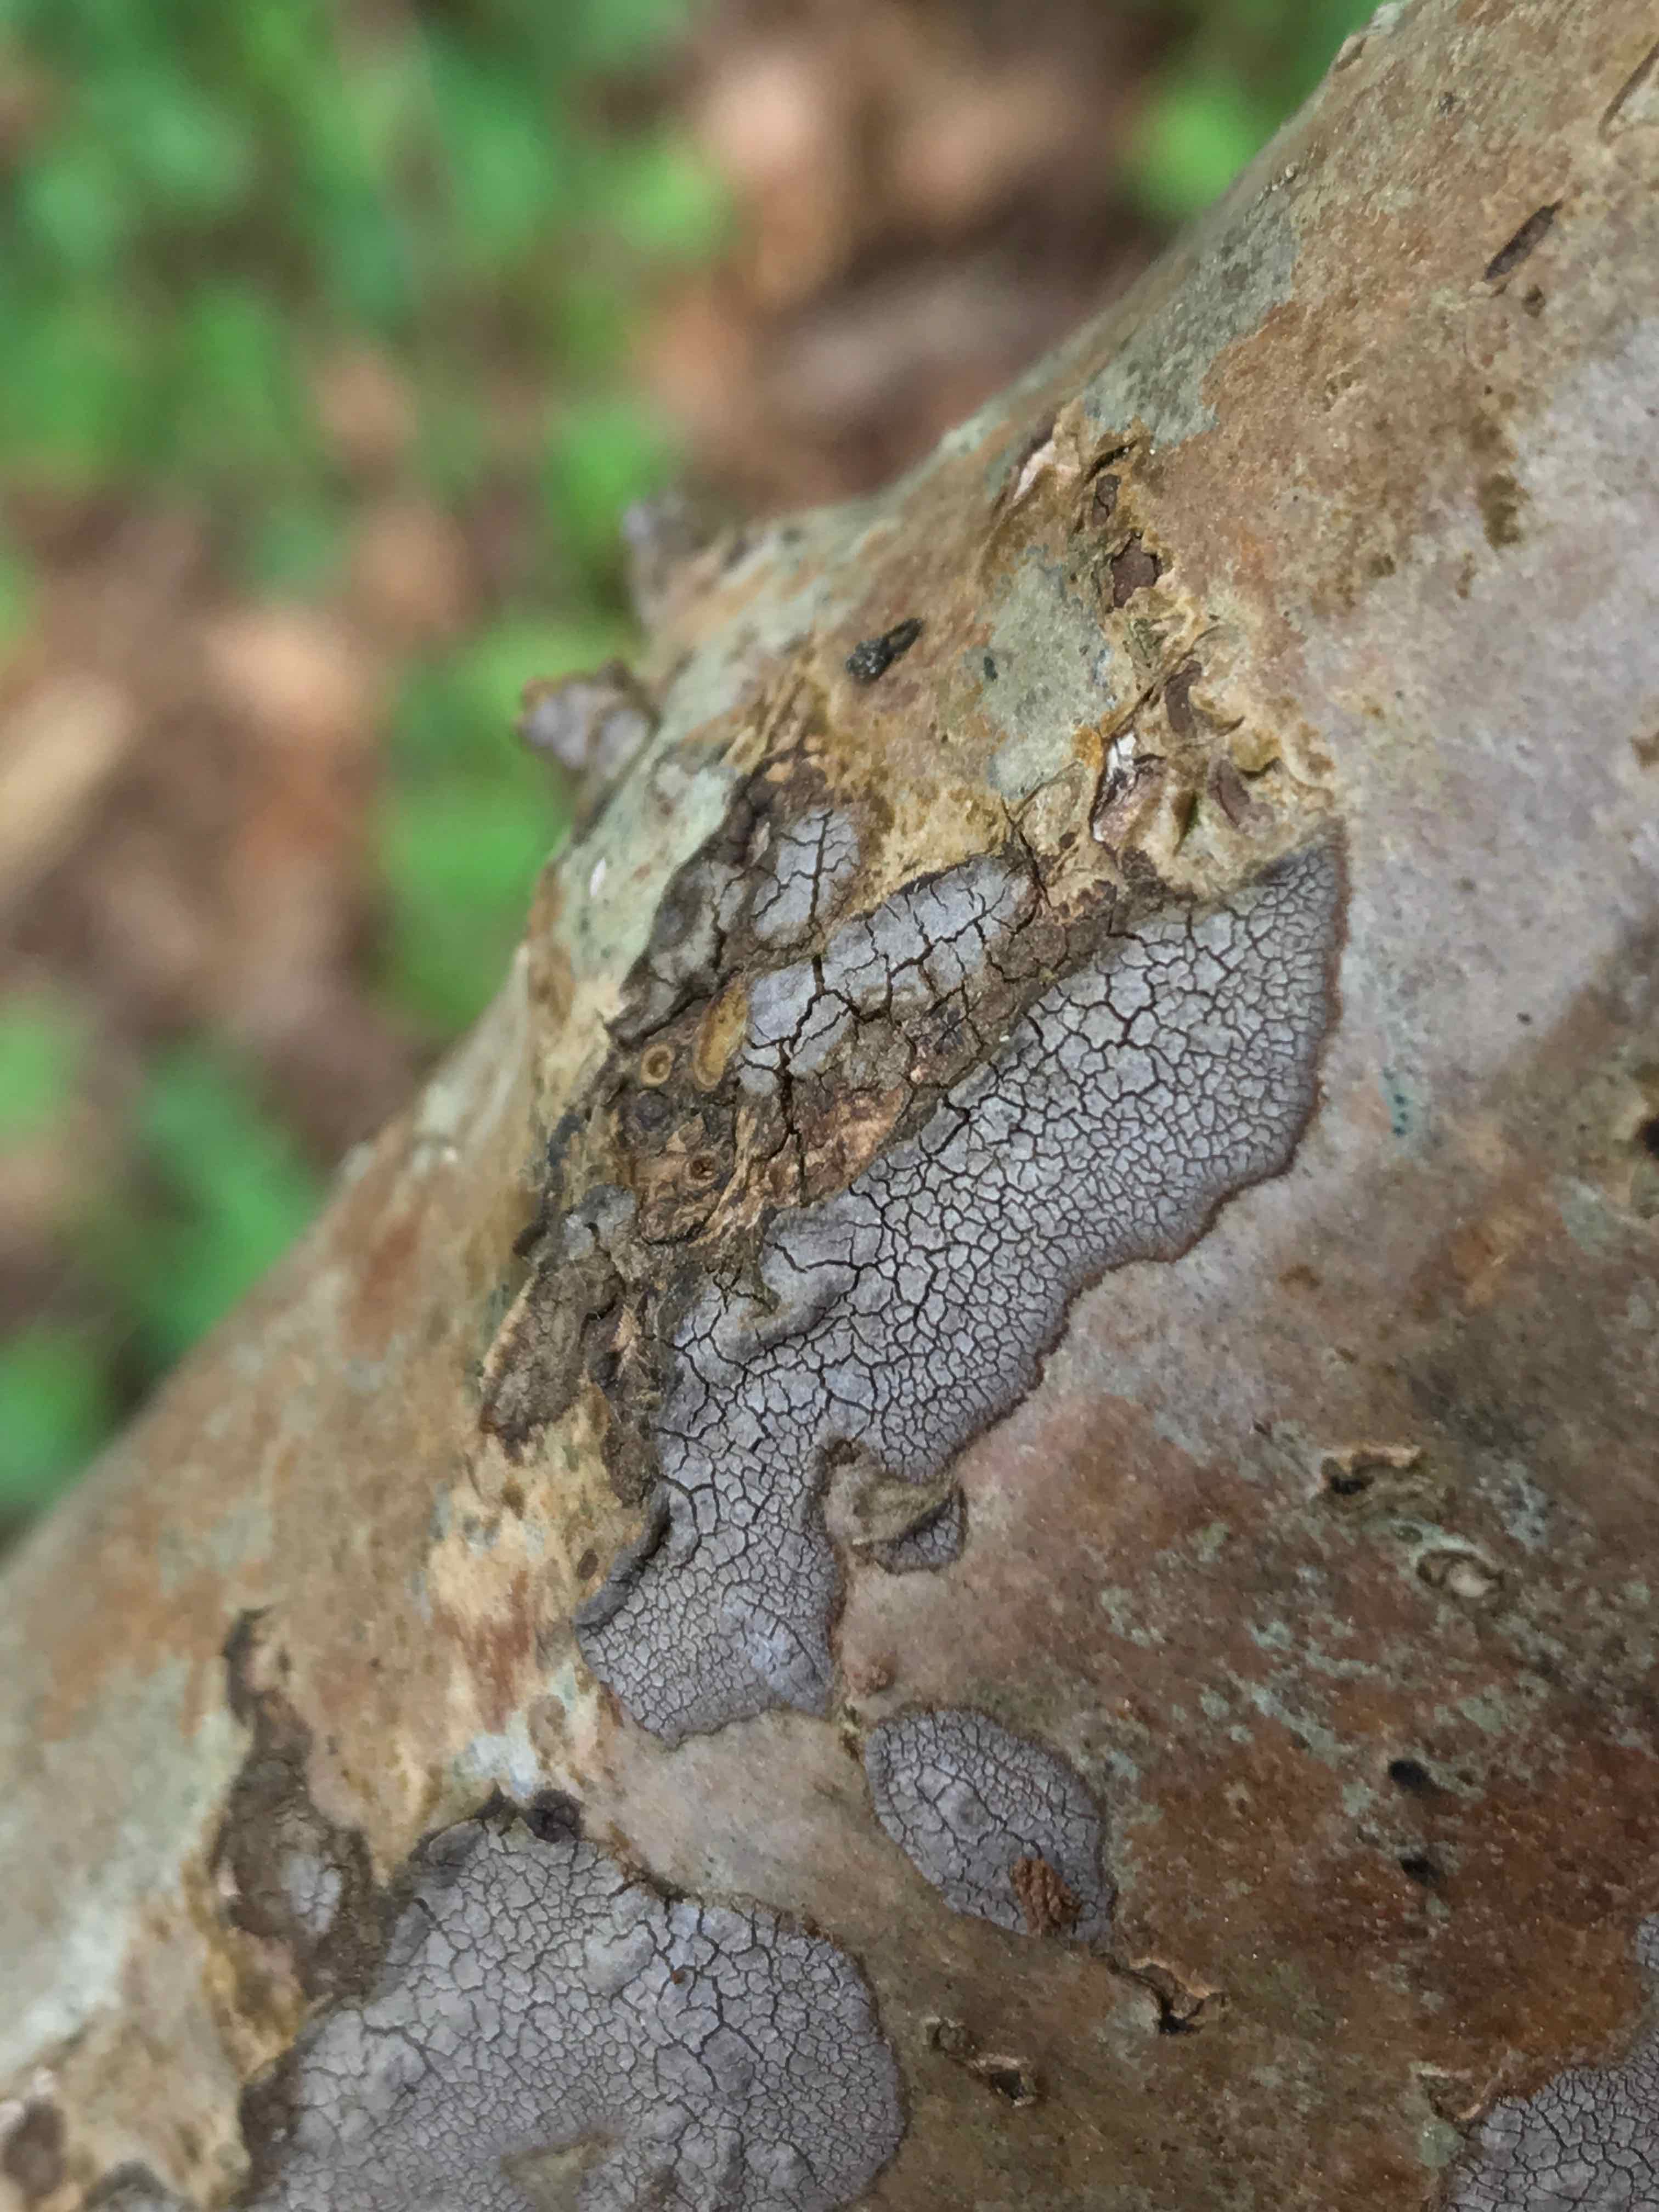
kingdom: Fungi
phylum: Basidiomycota
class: Agaricomycetes
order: Russulales
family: Peniophoraceae
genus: Peniophora
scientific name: Peniophora
